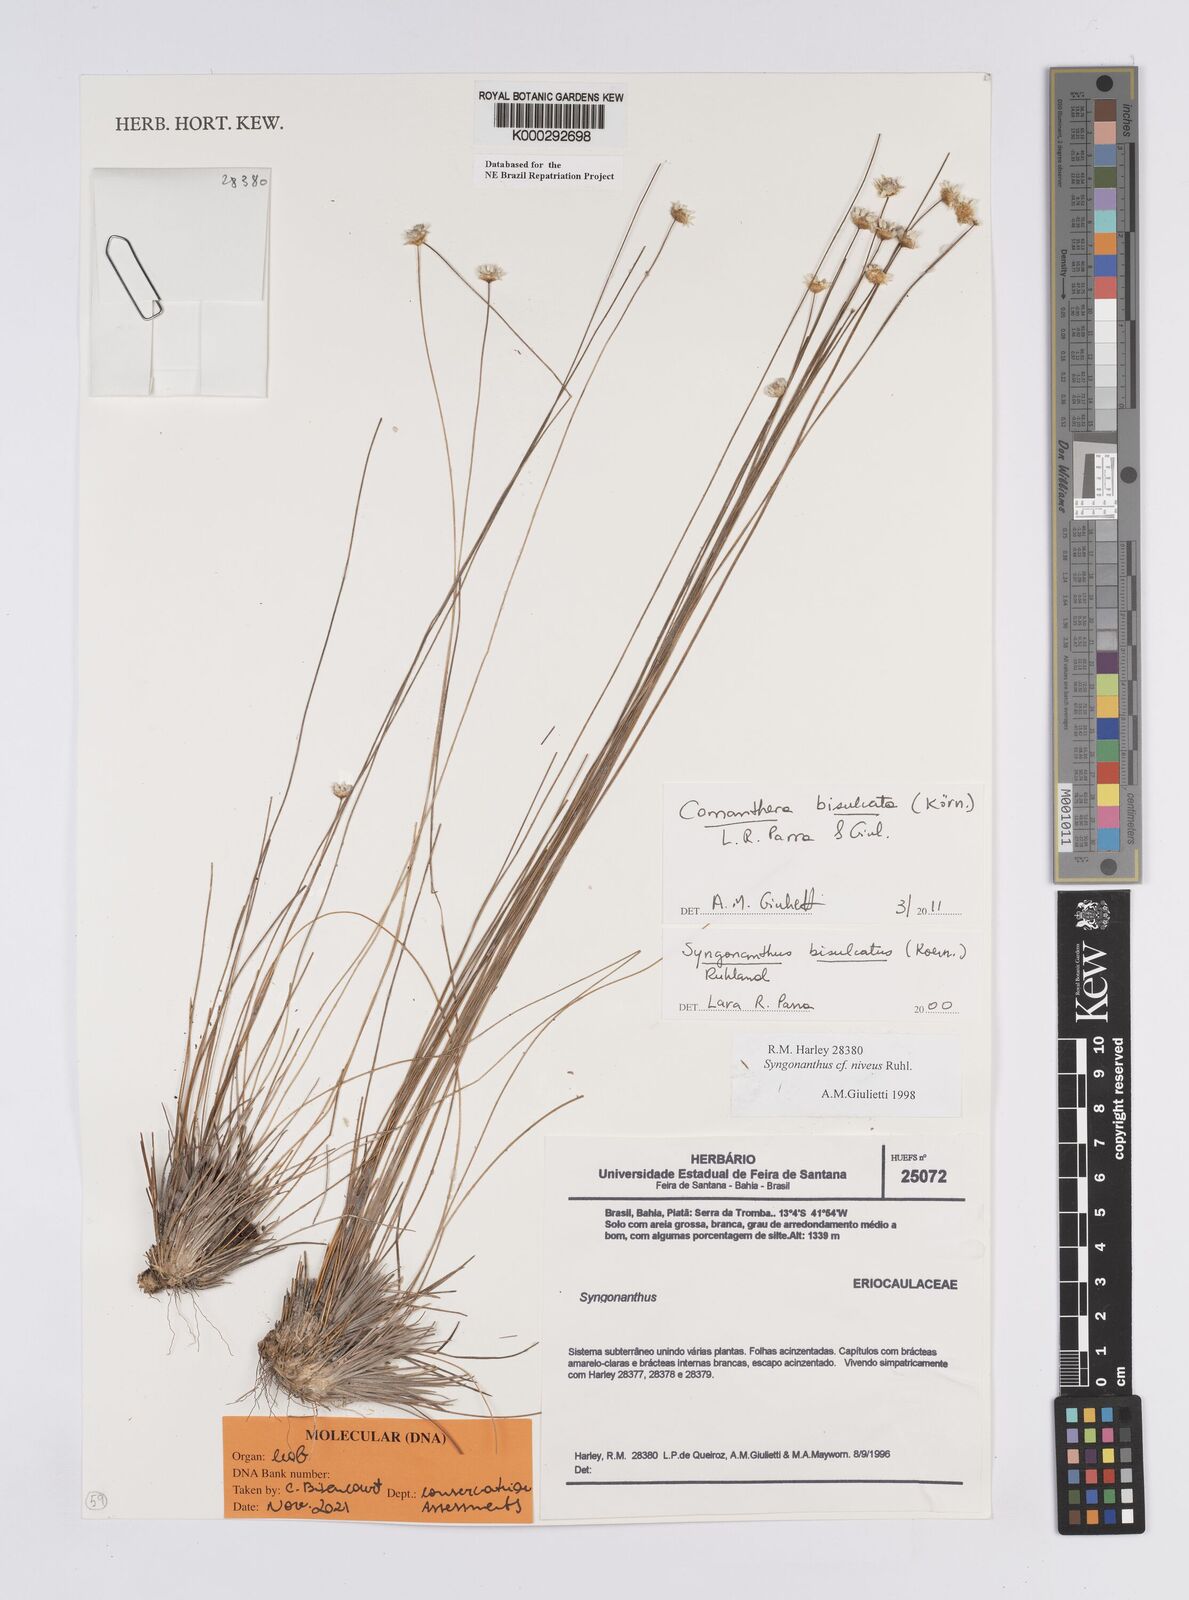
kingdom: Plantae
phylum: Tracheophyta
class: Liliopsida
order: Poales
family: Eriocaulaceae
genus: Comanthera
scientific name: Comanthera bisulcata
